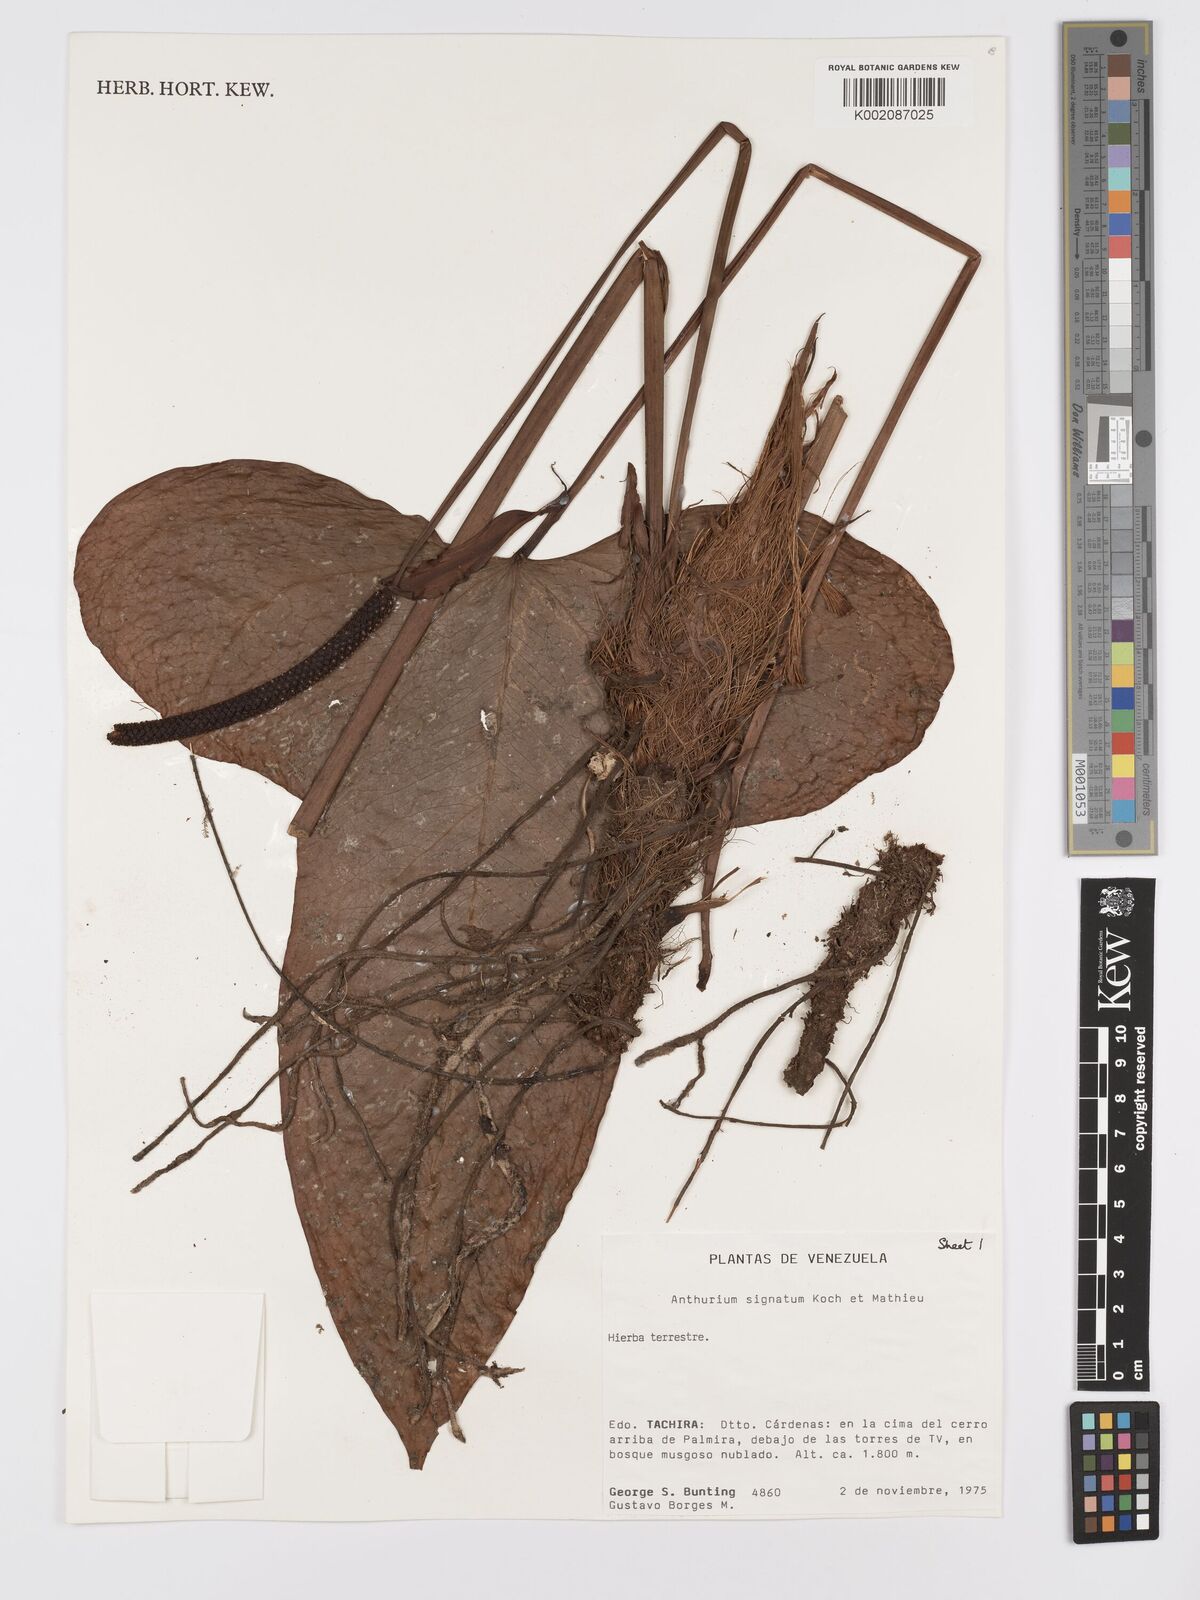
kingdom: Plantae
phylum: Tracheophyta
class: Liliopsida
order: Alismatales
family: Araceae
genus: Anthurium
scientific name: Anthurium signatum
